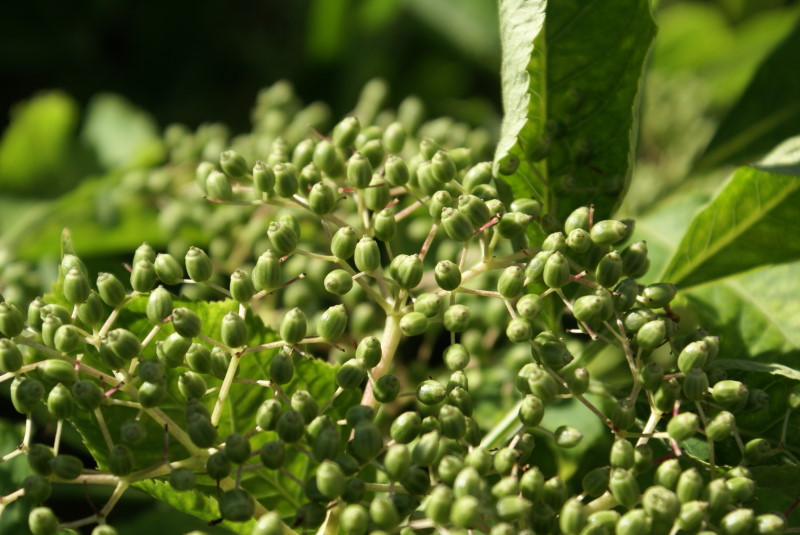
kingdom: Plantae
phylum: Tracheophyta
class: Magnoliopsida
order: Dipsacales
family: Viburnaceae
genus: Sambucus
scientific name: Sambucus nigra
